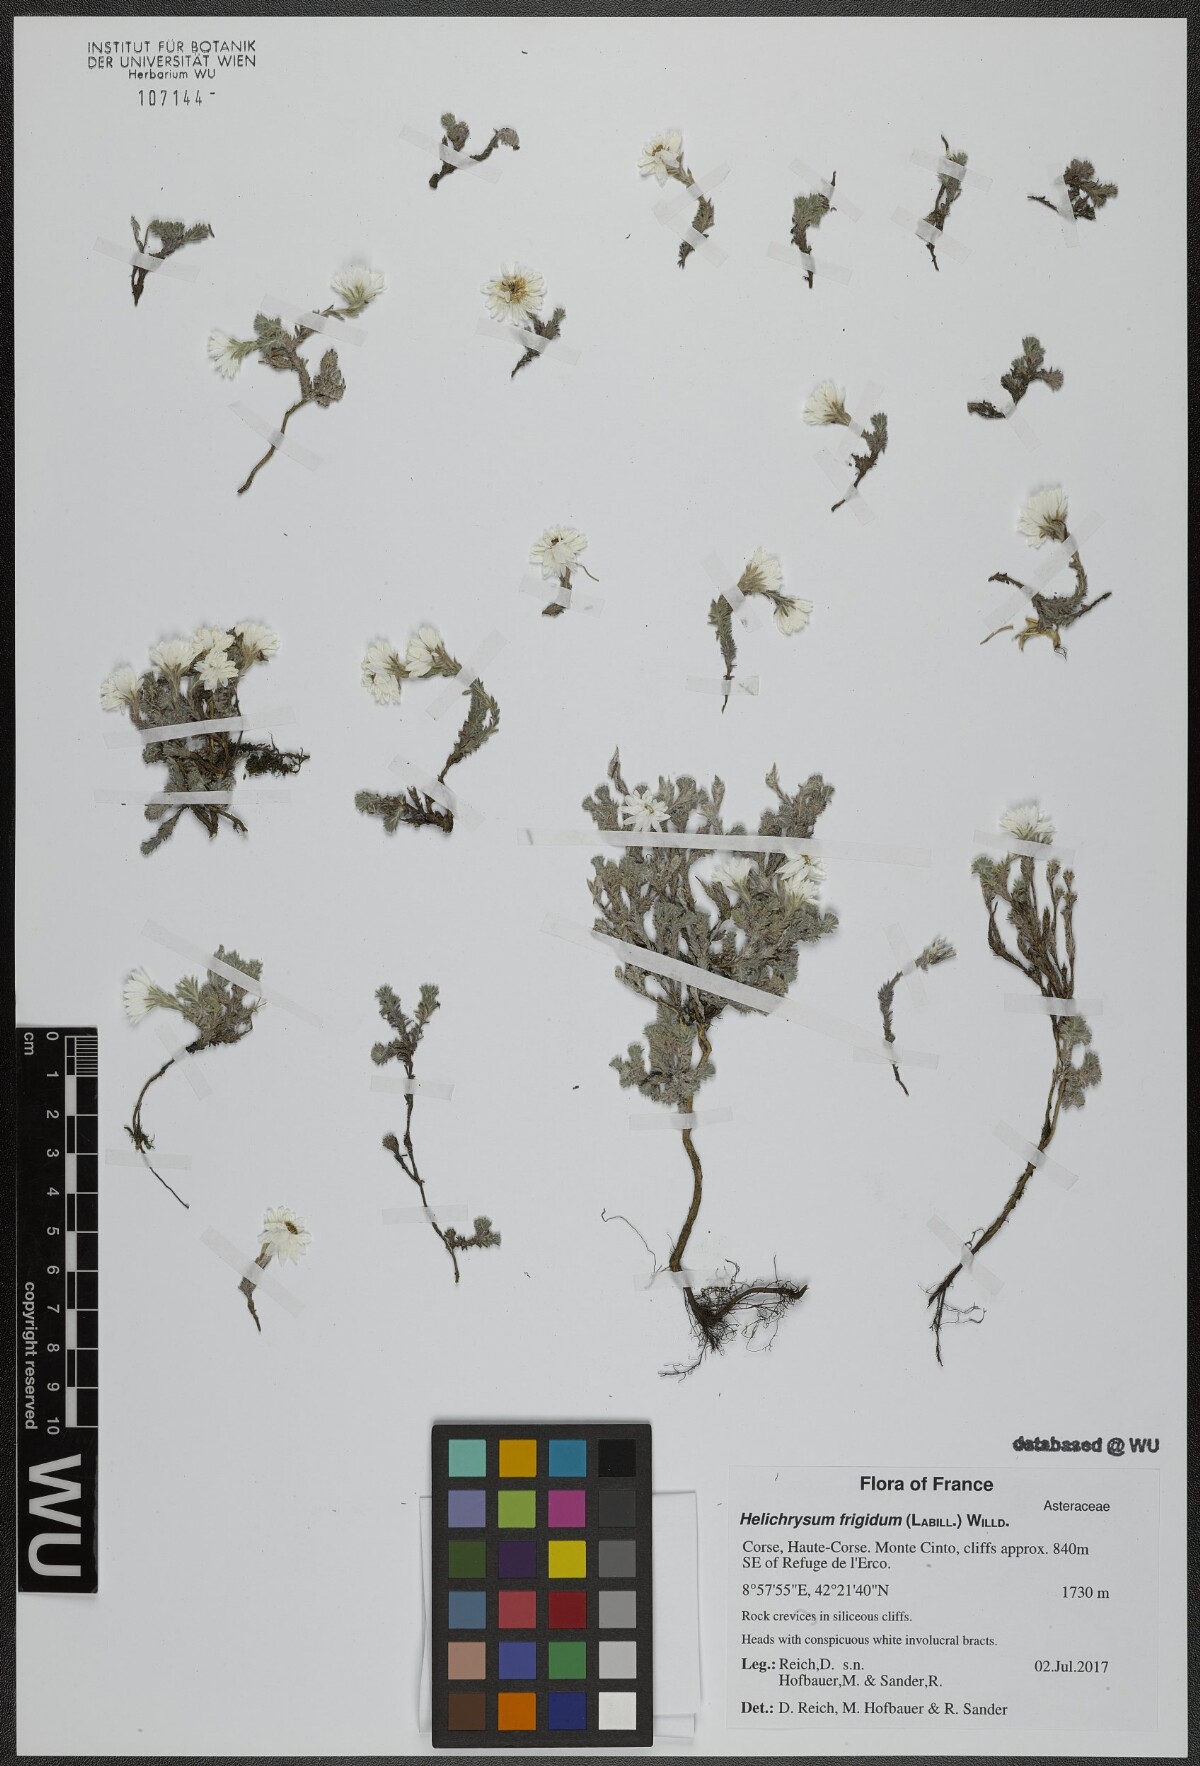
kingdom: Plantae
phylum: Tracheophyta
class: Magnoliopsida
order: Asterales
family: Asteraceae
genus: Castroviejoa
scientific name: Castroviejoa frigida
